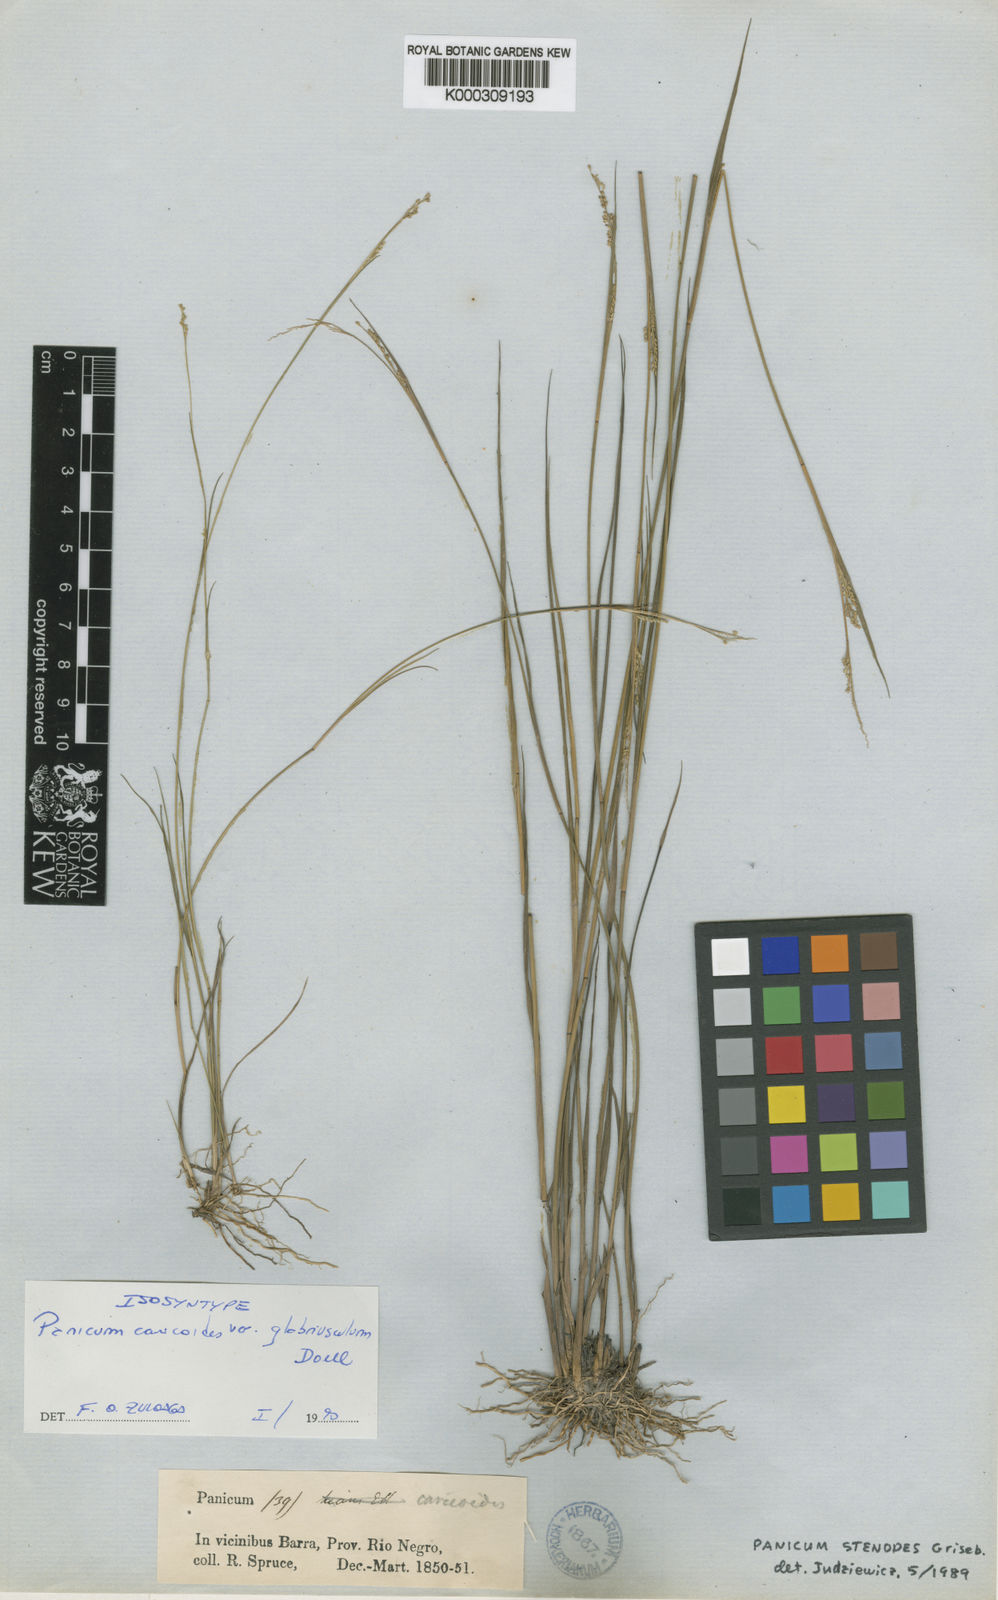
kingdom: Plantae
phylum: Tracheophyta
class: Liliopsida
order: Poales
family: Poaceae
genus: Coleataenia
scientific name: Coleataenia stenodes
